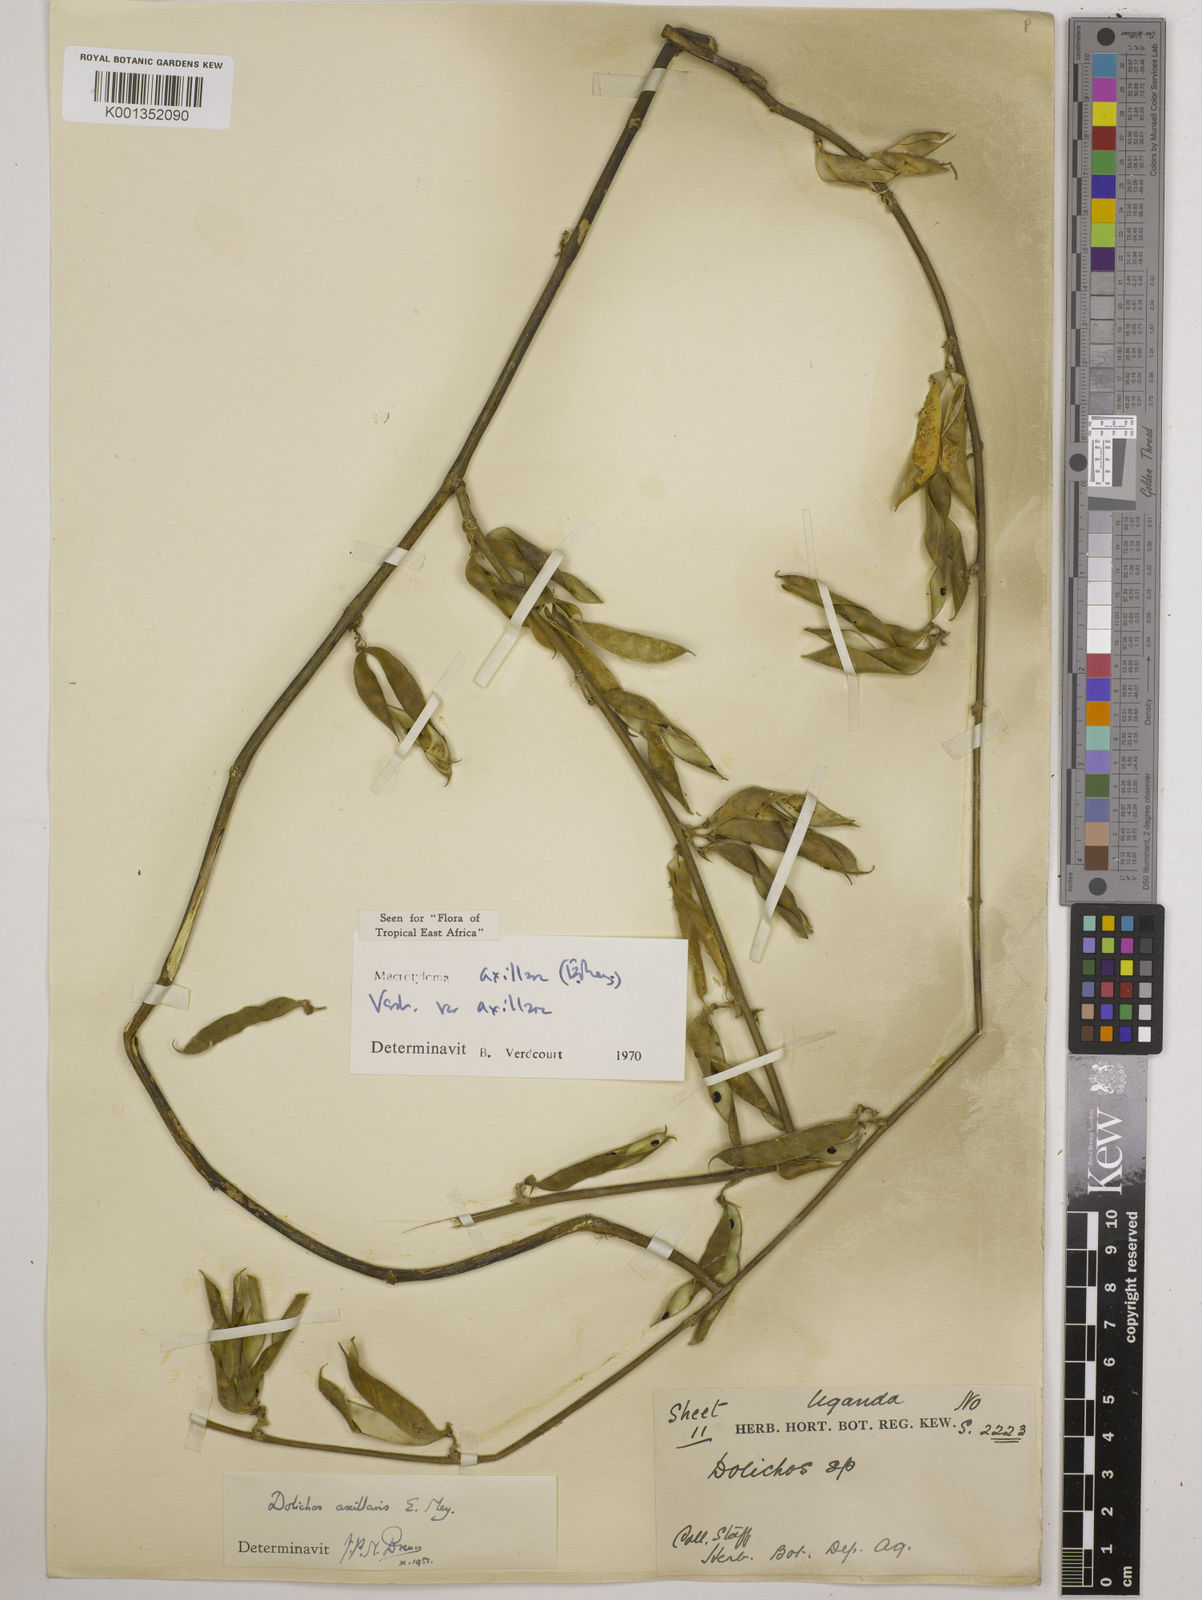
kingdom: Plantae
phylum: Tracheophyta
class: Magnoliopsida
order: Fabales
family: Fabaceae
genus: Macrotyloma
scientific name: Macrotyloma axillare
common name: Perennial horsegram
